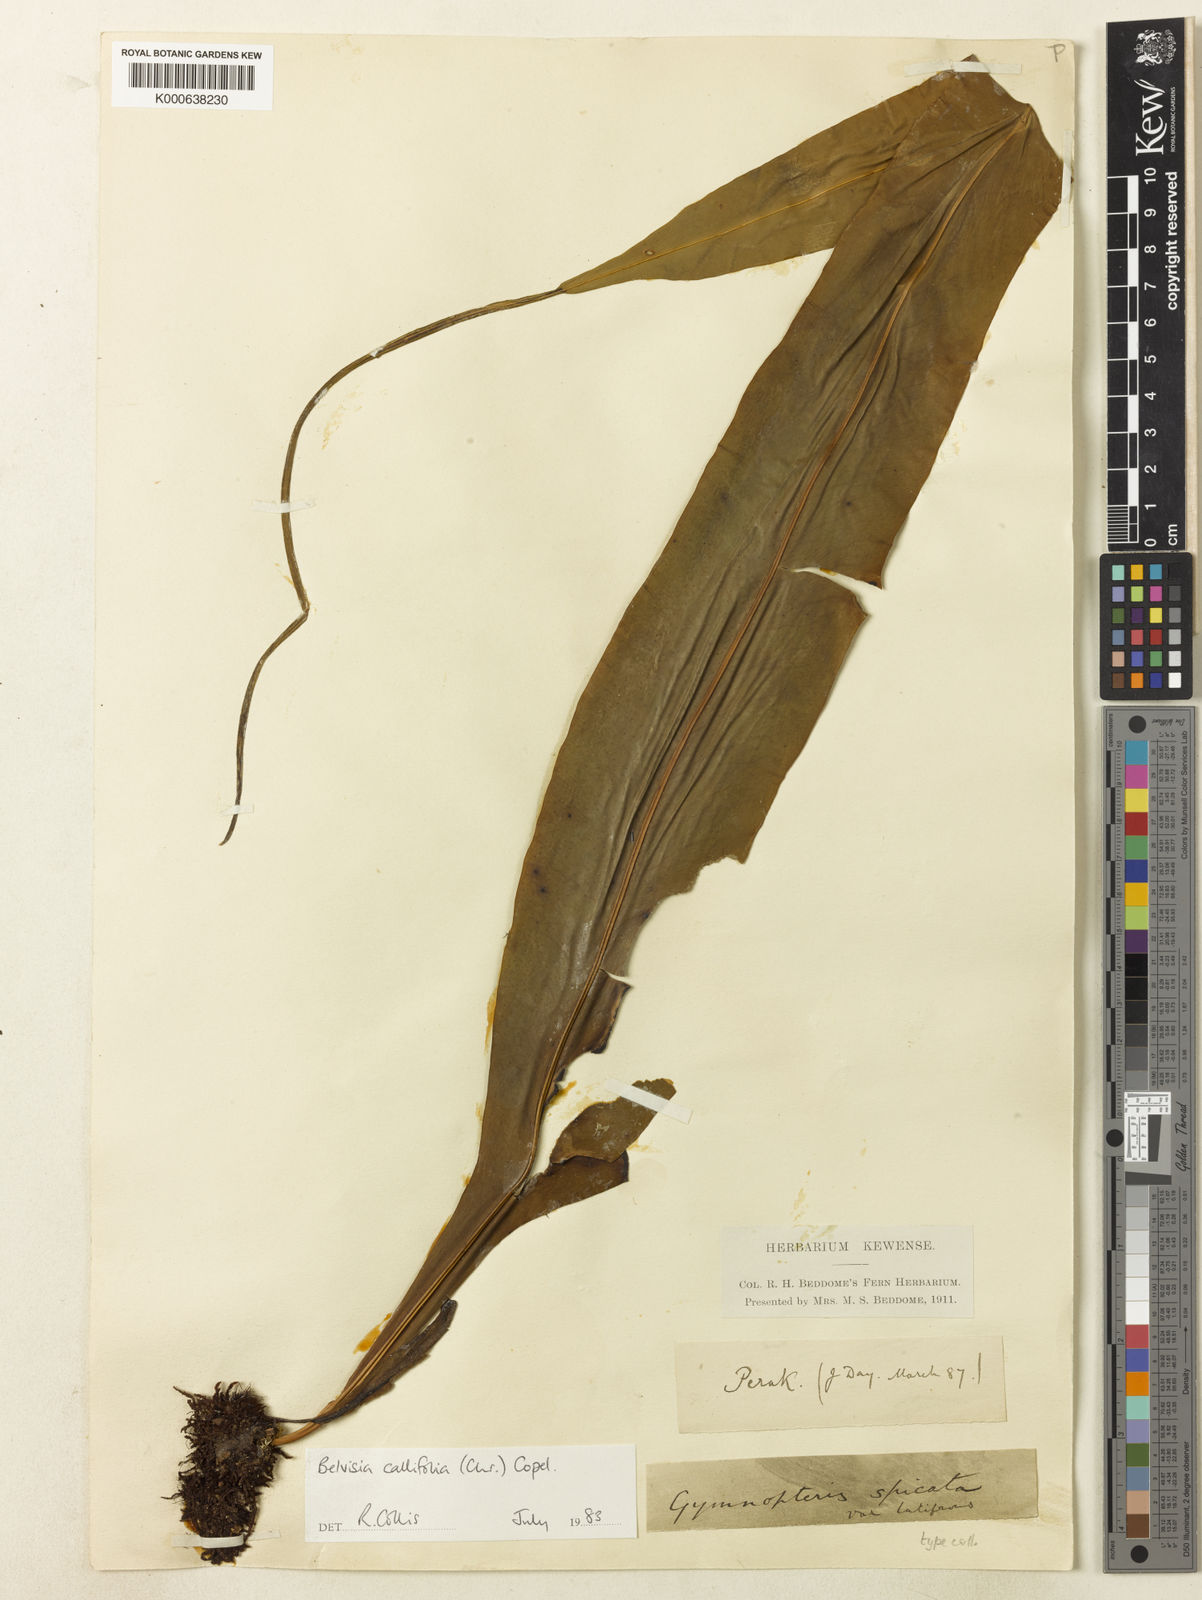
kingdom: Plantae
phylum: Tracheophyta
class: Polypodiopsida
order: Polypodiales
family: Polypodiaceae
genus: Lepisorus
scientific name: Lepisorus mucronatus
